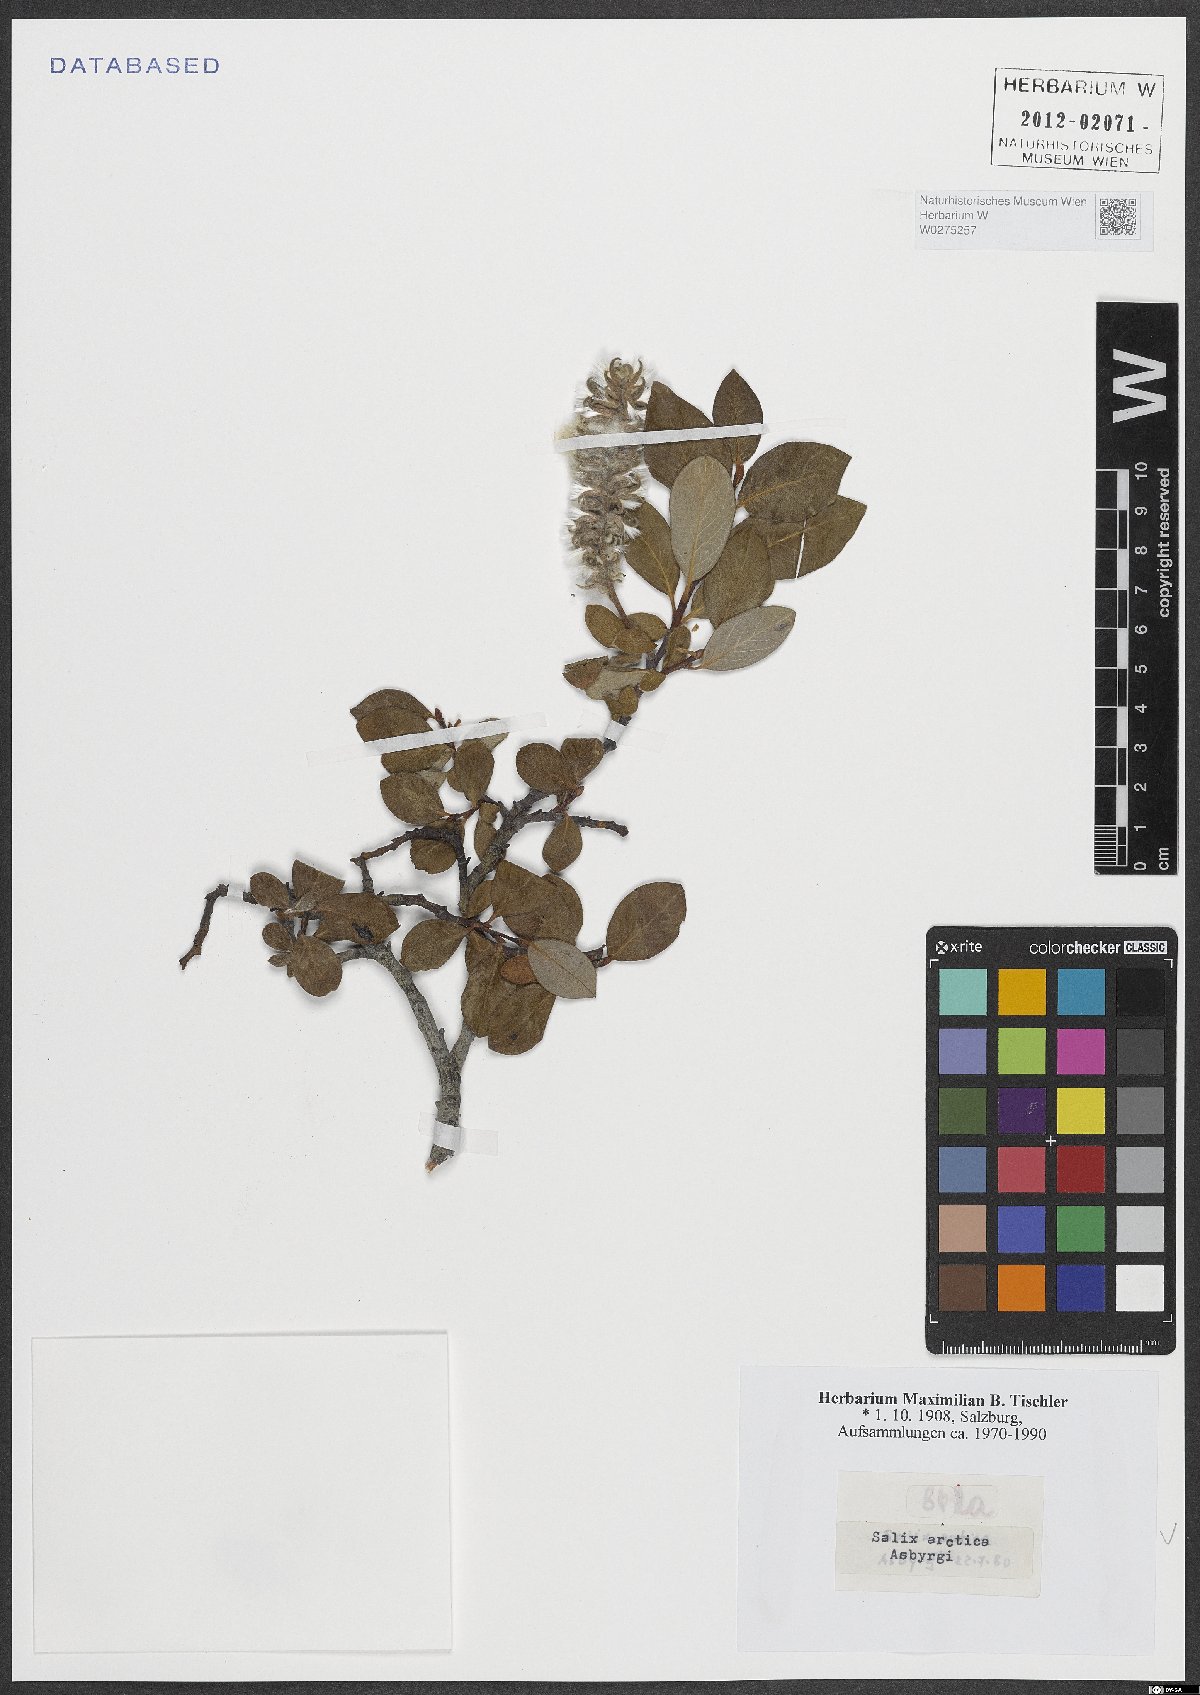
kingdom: Plantae
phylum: Tracheophyta
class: Magnoliopsida
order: Malpighiales
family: Salicaceae
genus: Salix
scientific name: Salix arctica
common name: Arctic willow
